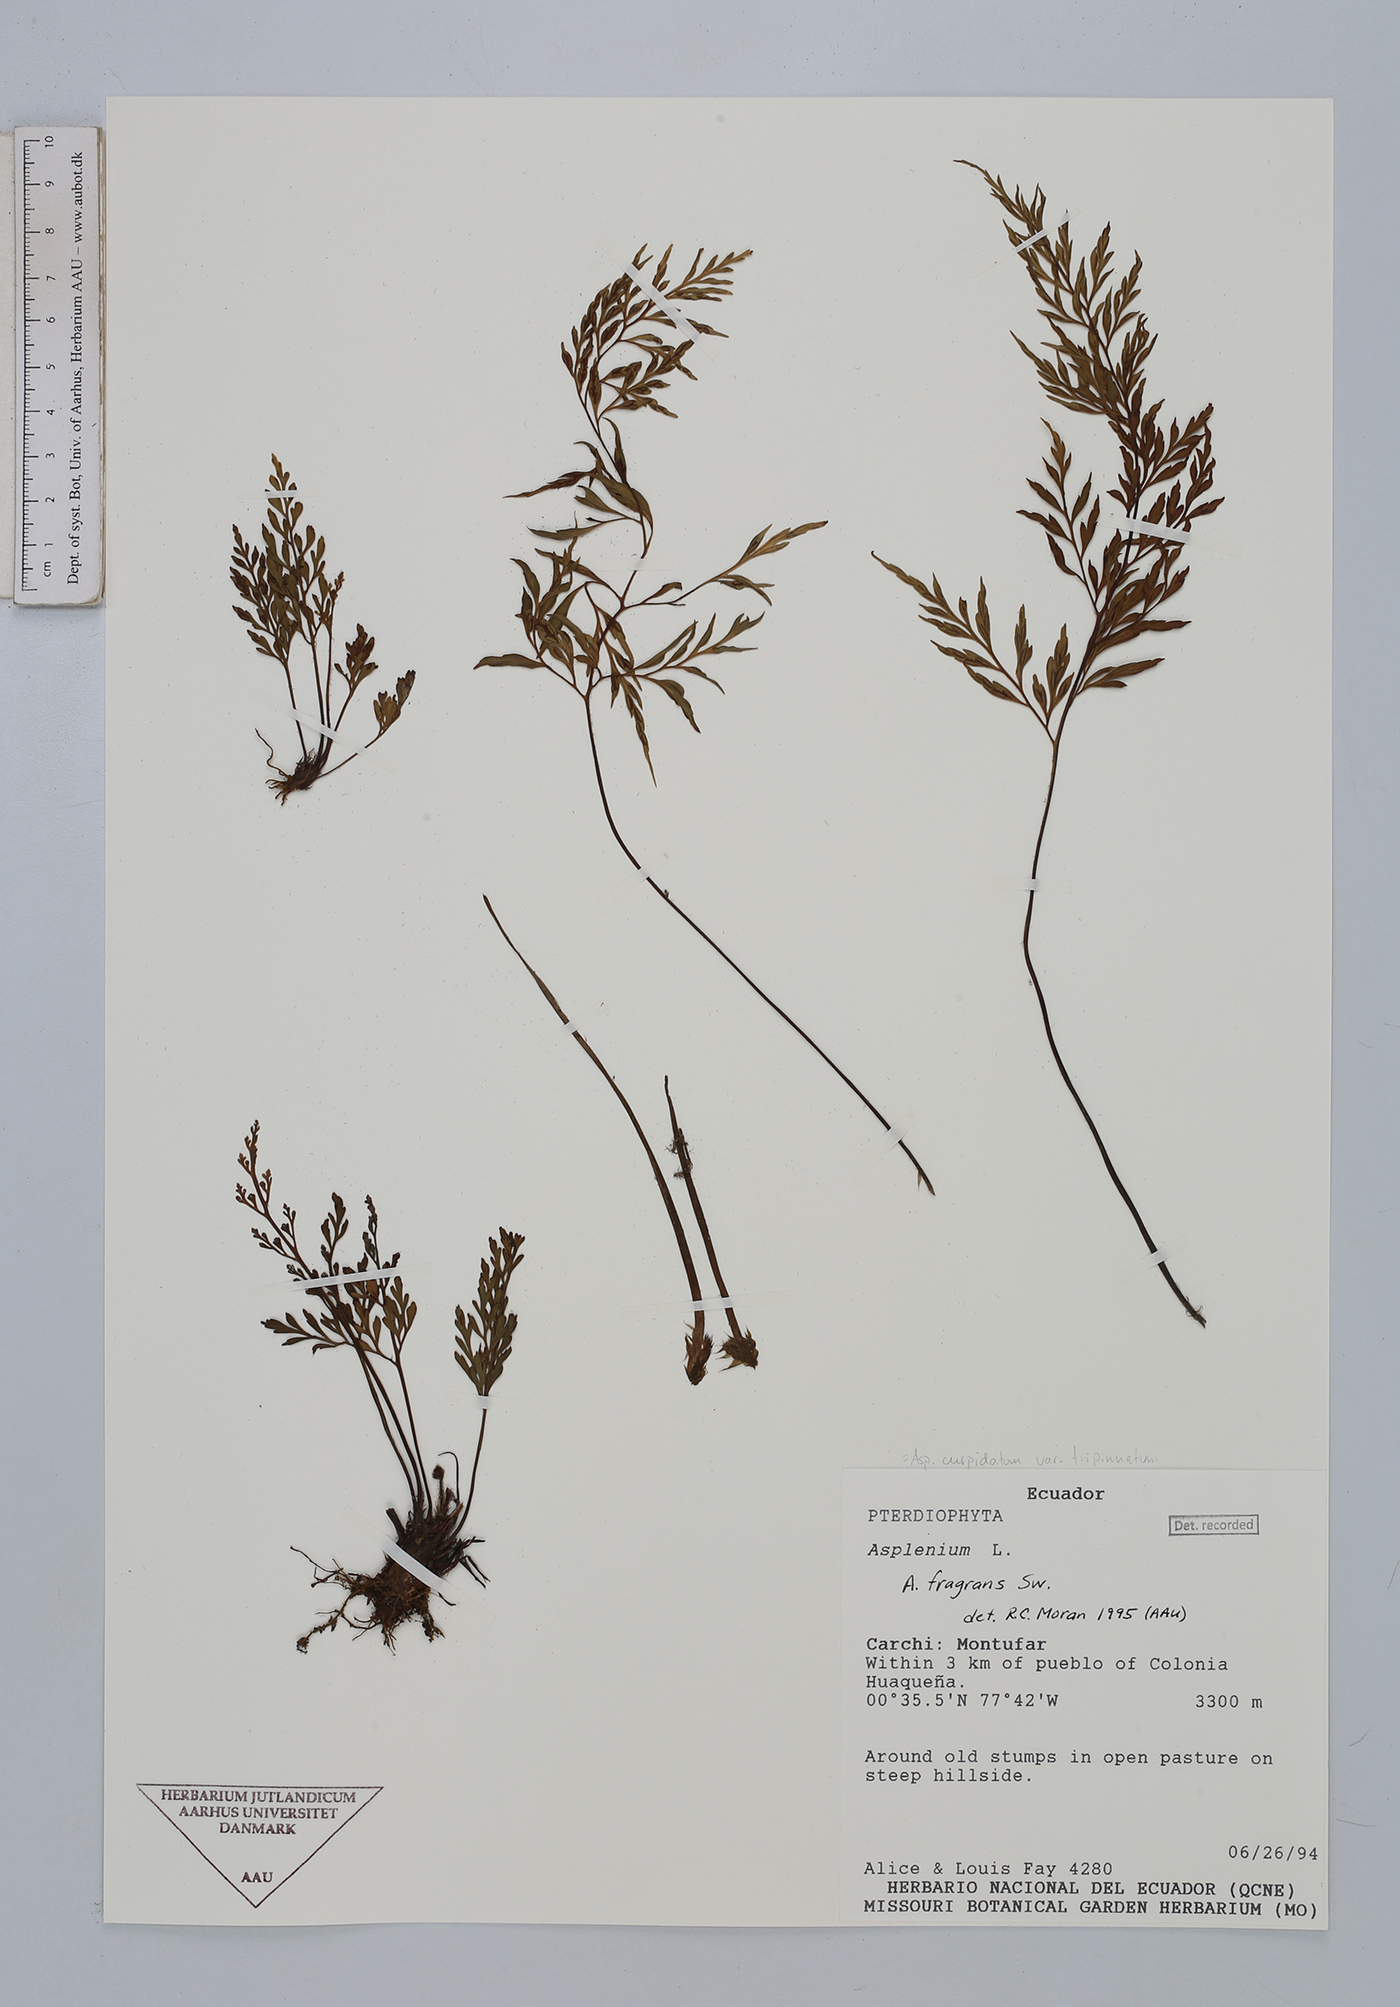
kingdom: Plantae
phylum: Tracheophyta
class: Polypodiopsida
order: Polypodiales
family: Aspleniaceae
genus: Asplenium
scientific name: Asplenium fragrans
